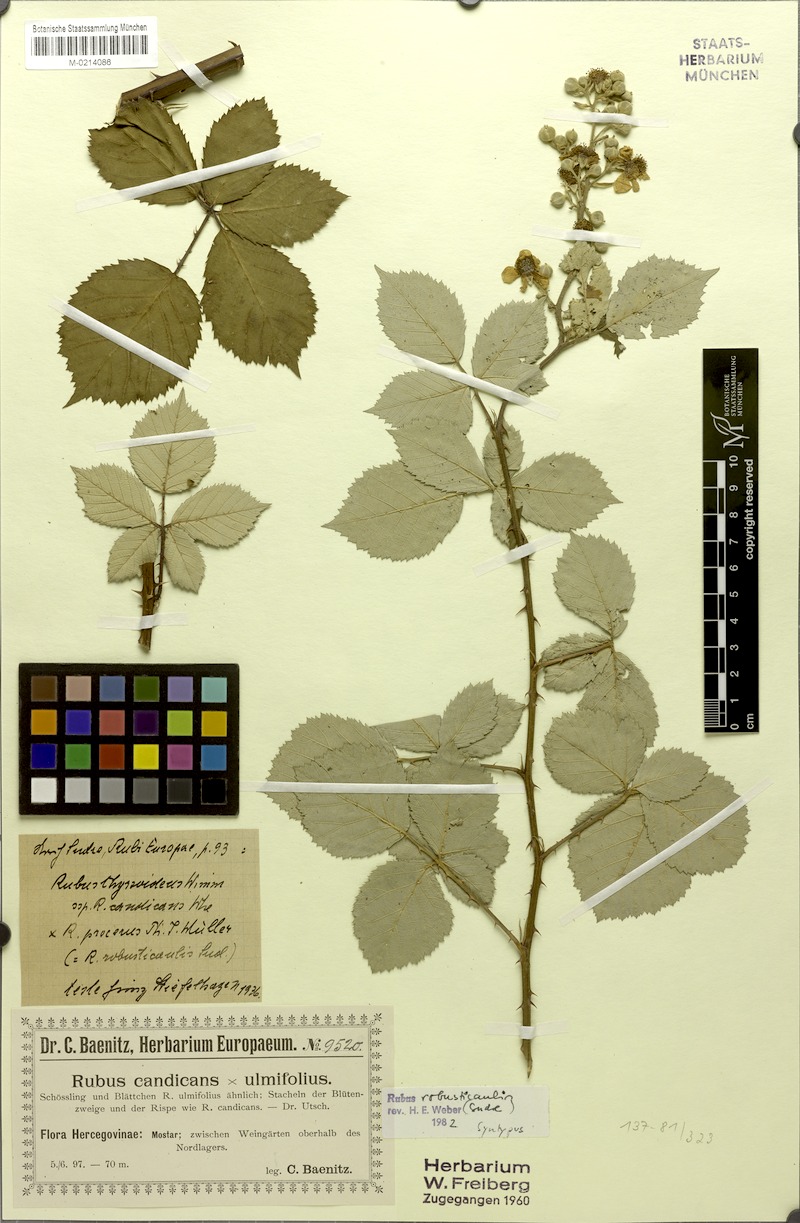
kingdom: Plantae
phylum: Tracheophyta
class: Magnoliopsida
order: Rosales
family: Rosaceae
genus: Rubus
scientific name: Rubus robusticaulis
